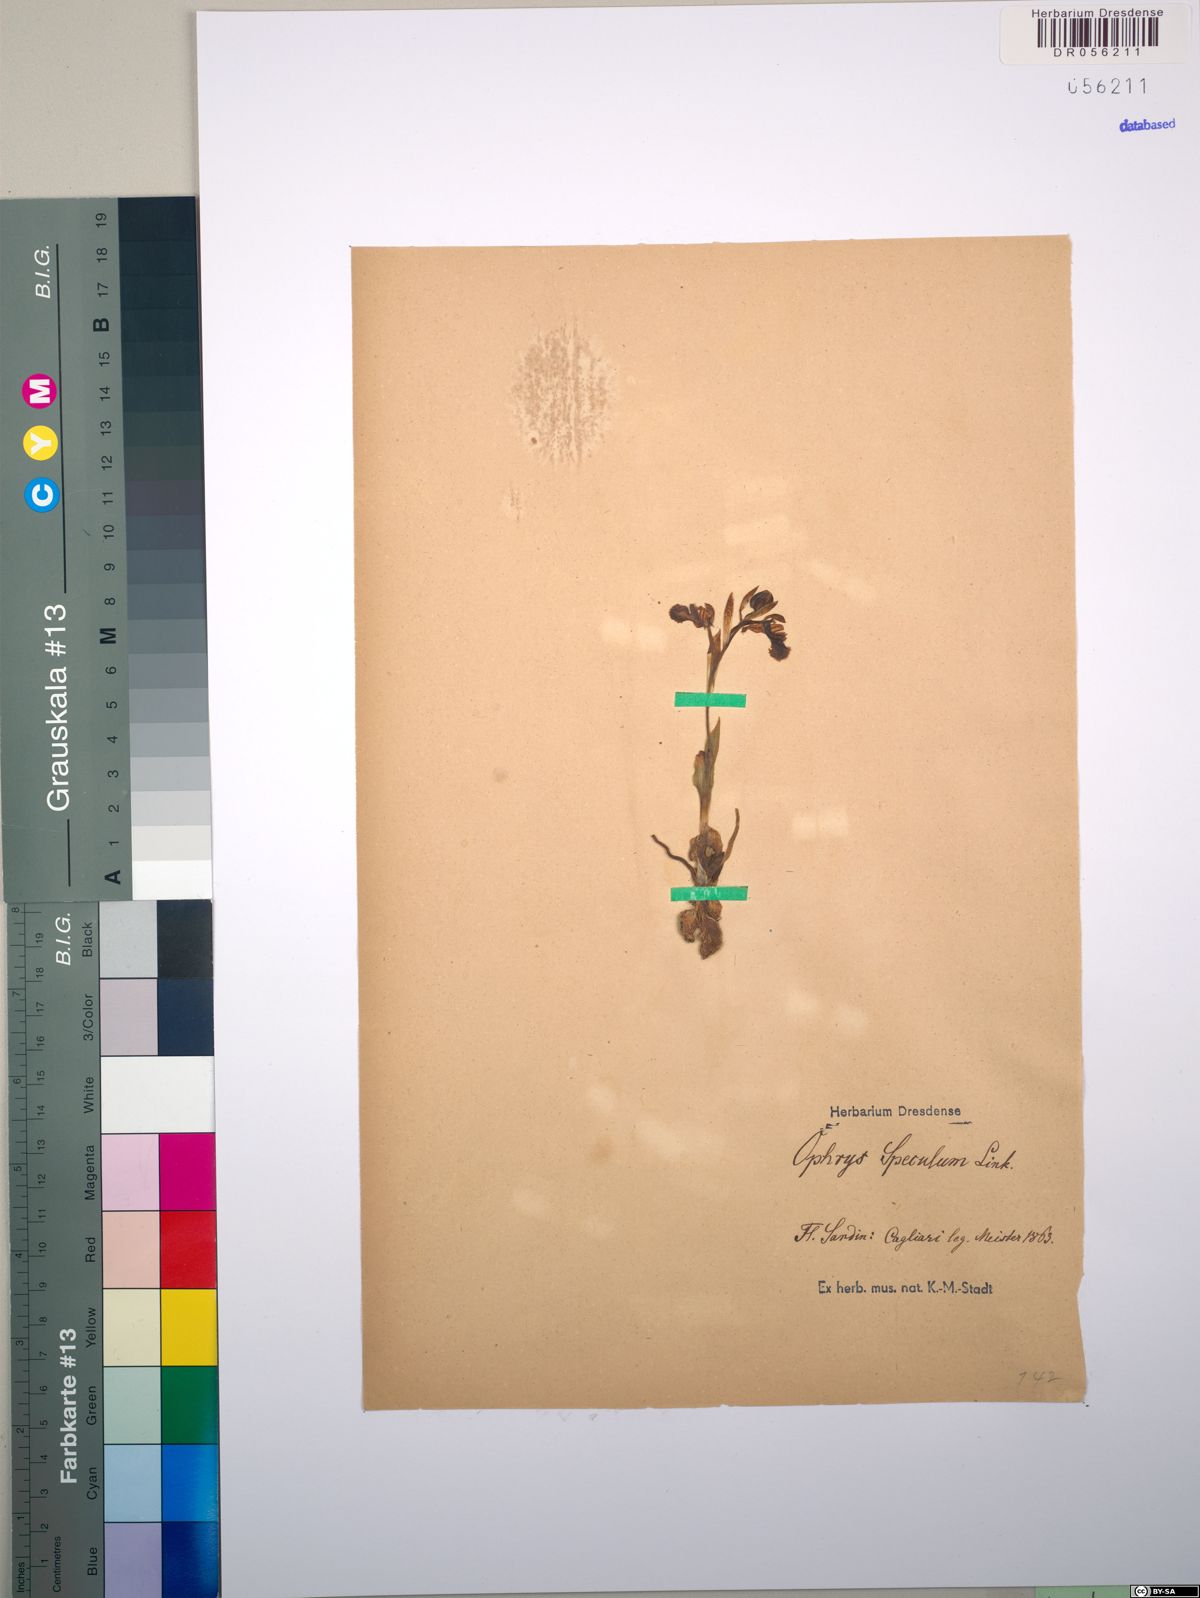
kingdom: Plantae
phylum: Tracheophyta
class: Liliopsida
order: Asparagales
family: Orchidaceae
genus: Ophrys
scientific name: Ophrys speculum
